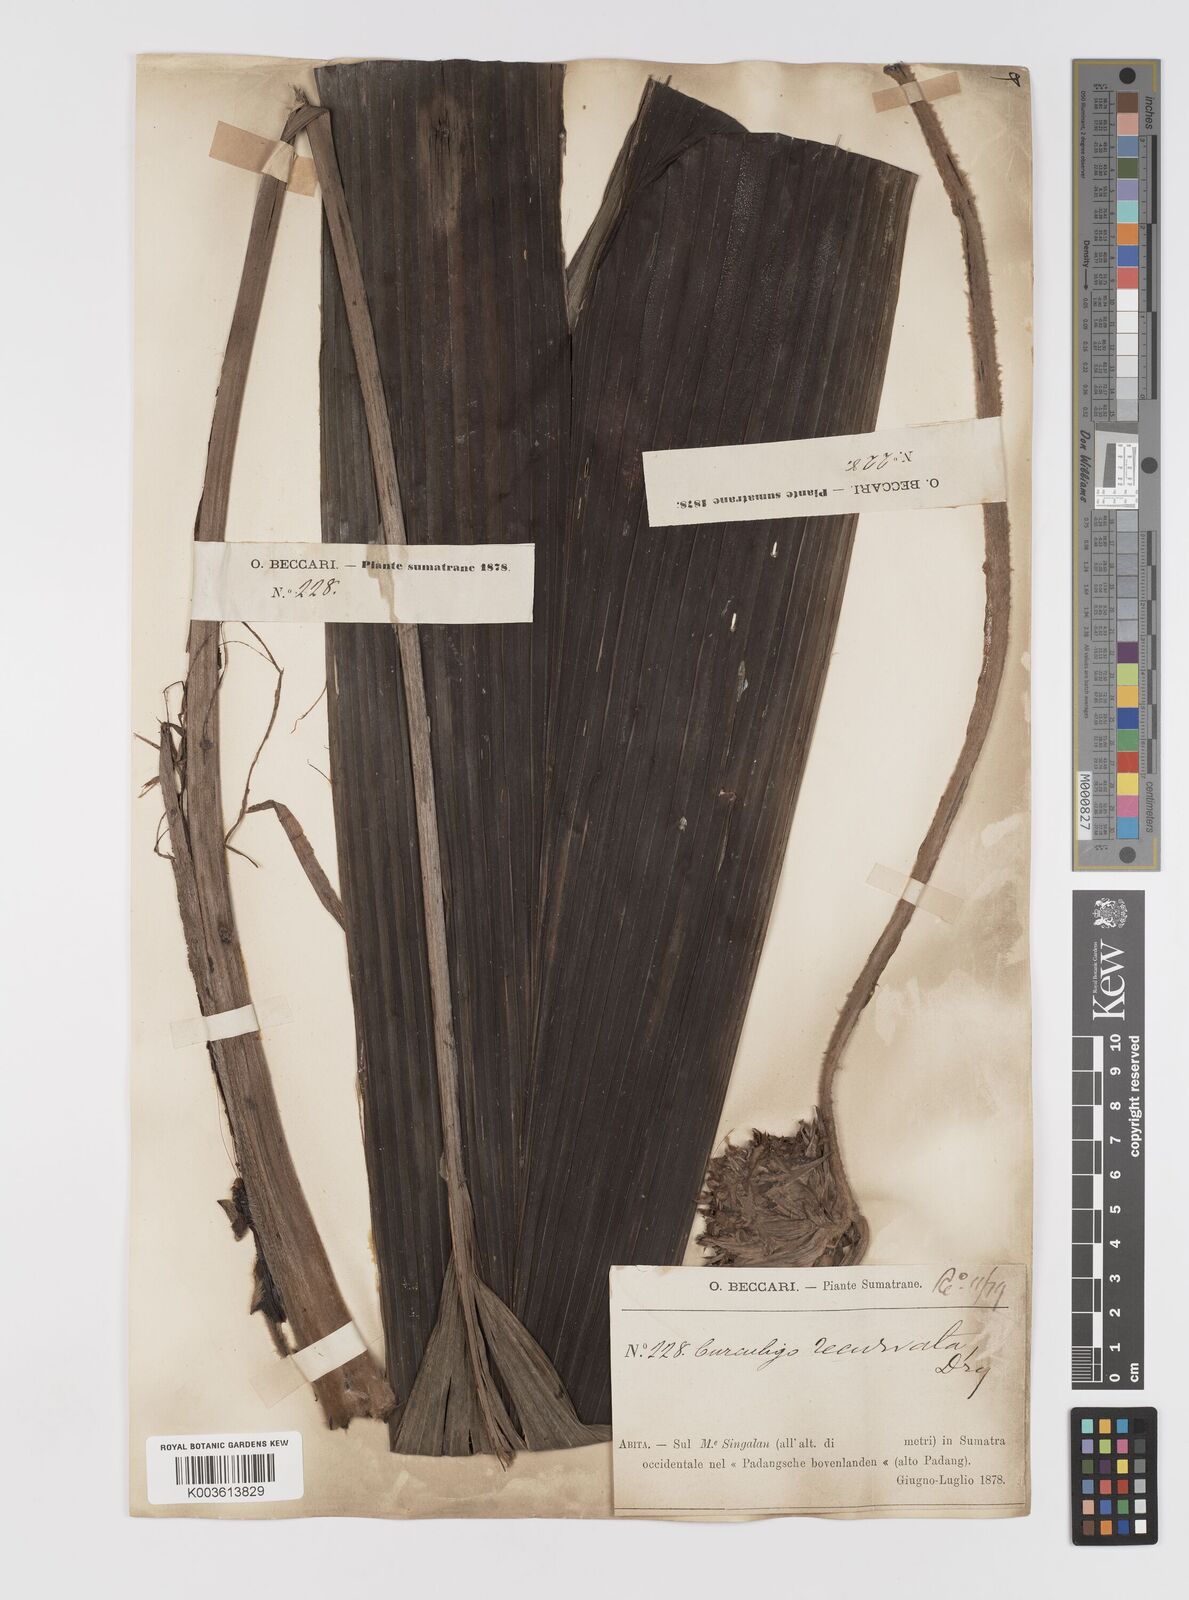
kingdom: Plantae
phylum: Tracheophyta
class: Liliopsida
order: Asparagales
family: Hypoxidaceae
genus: Curculigo
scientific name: Curculigo capitulata
